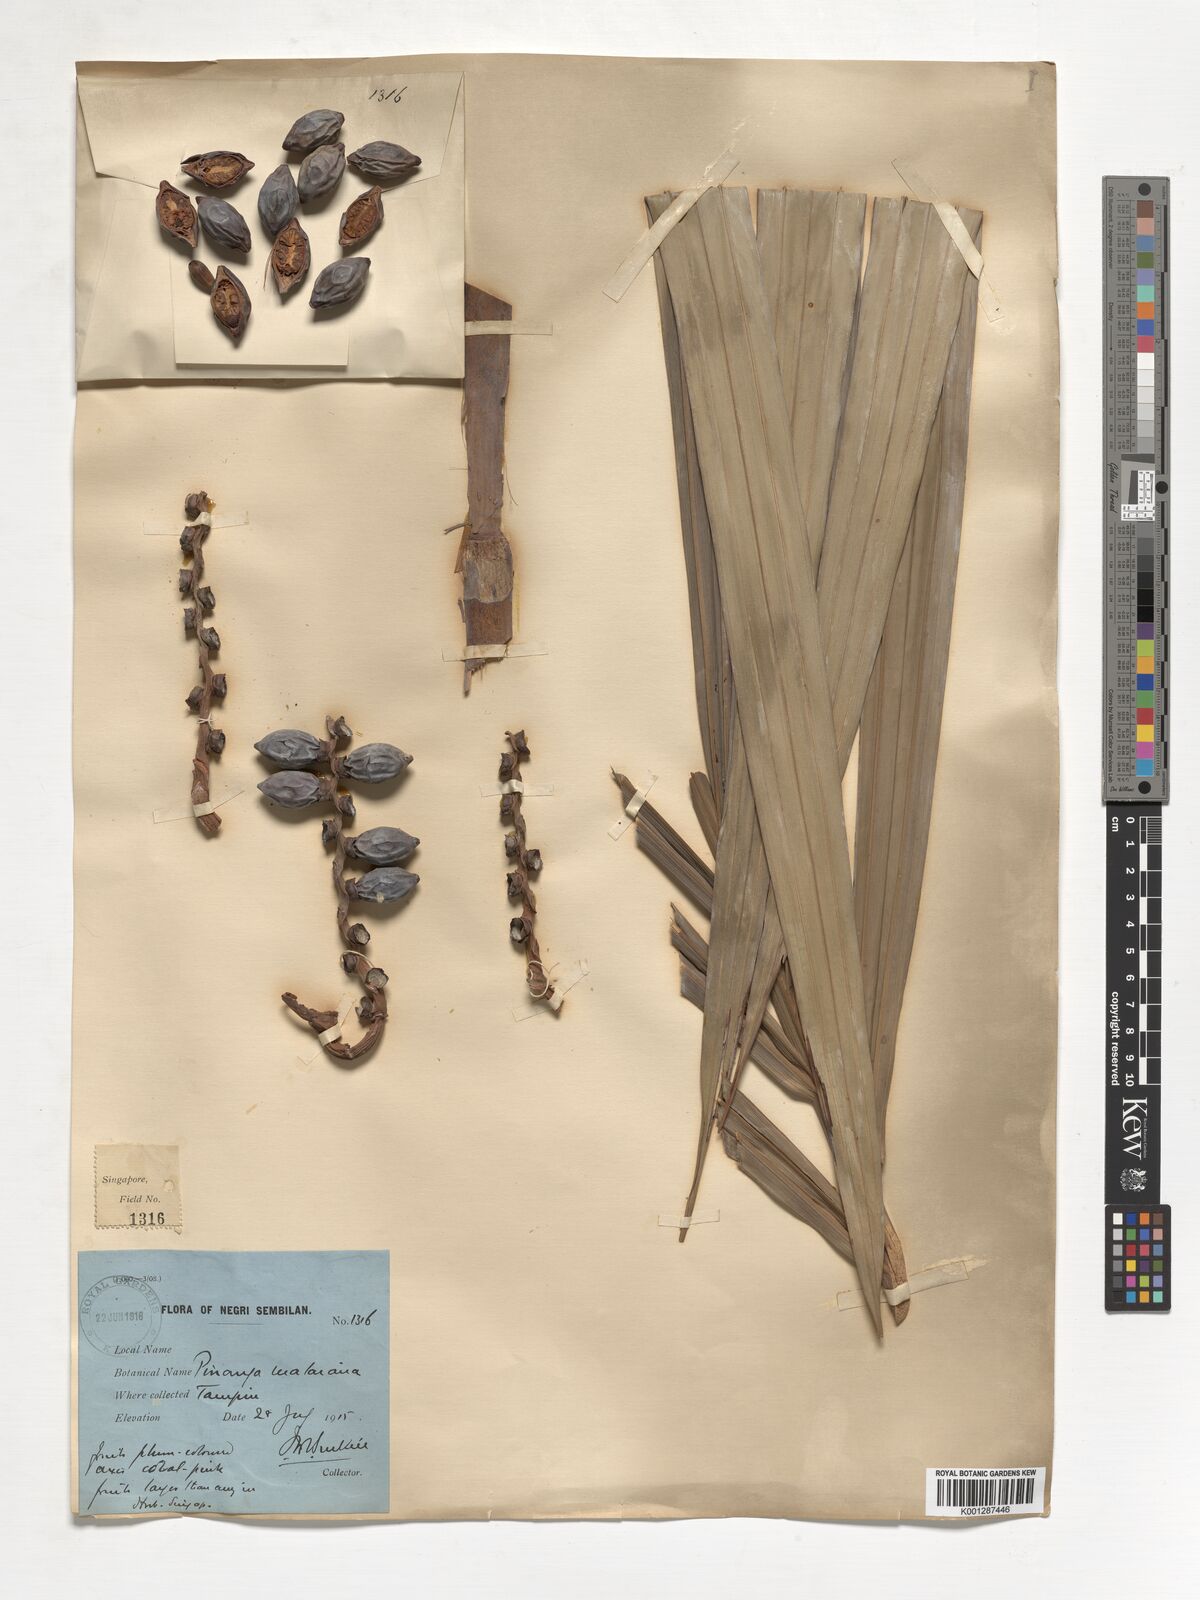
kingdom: Plantae
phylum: Tracheophyta
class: Liliopsida
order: Arecales
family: Arecaceae
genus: Pinanga
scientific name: Pinanga malaiana
